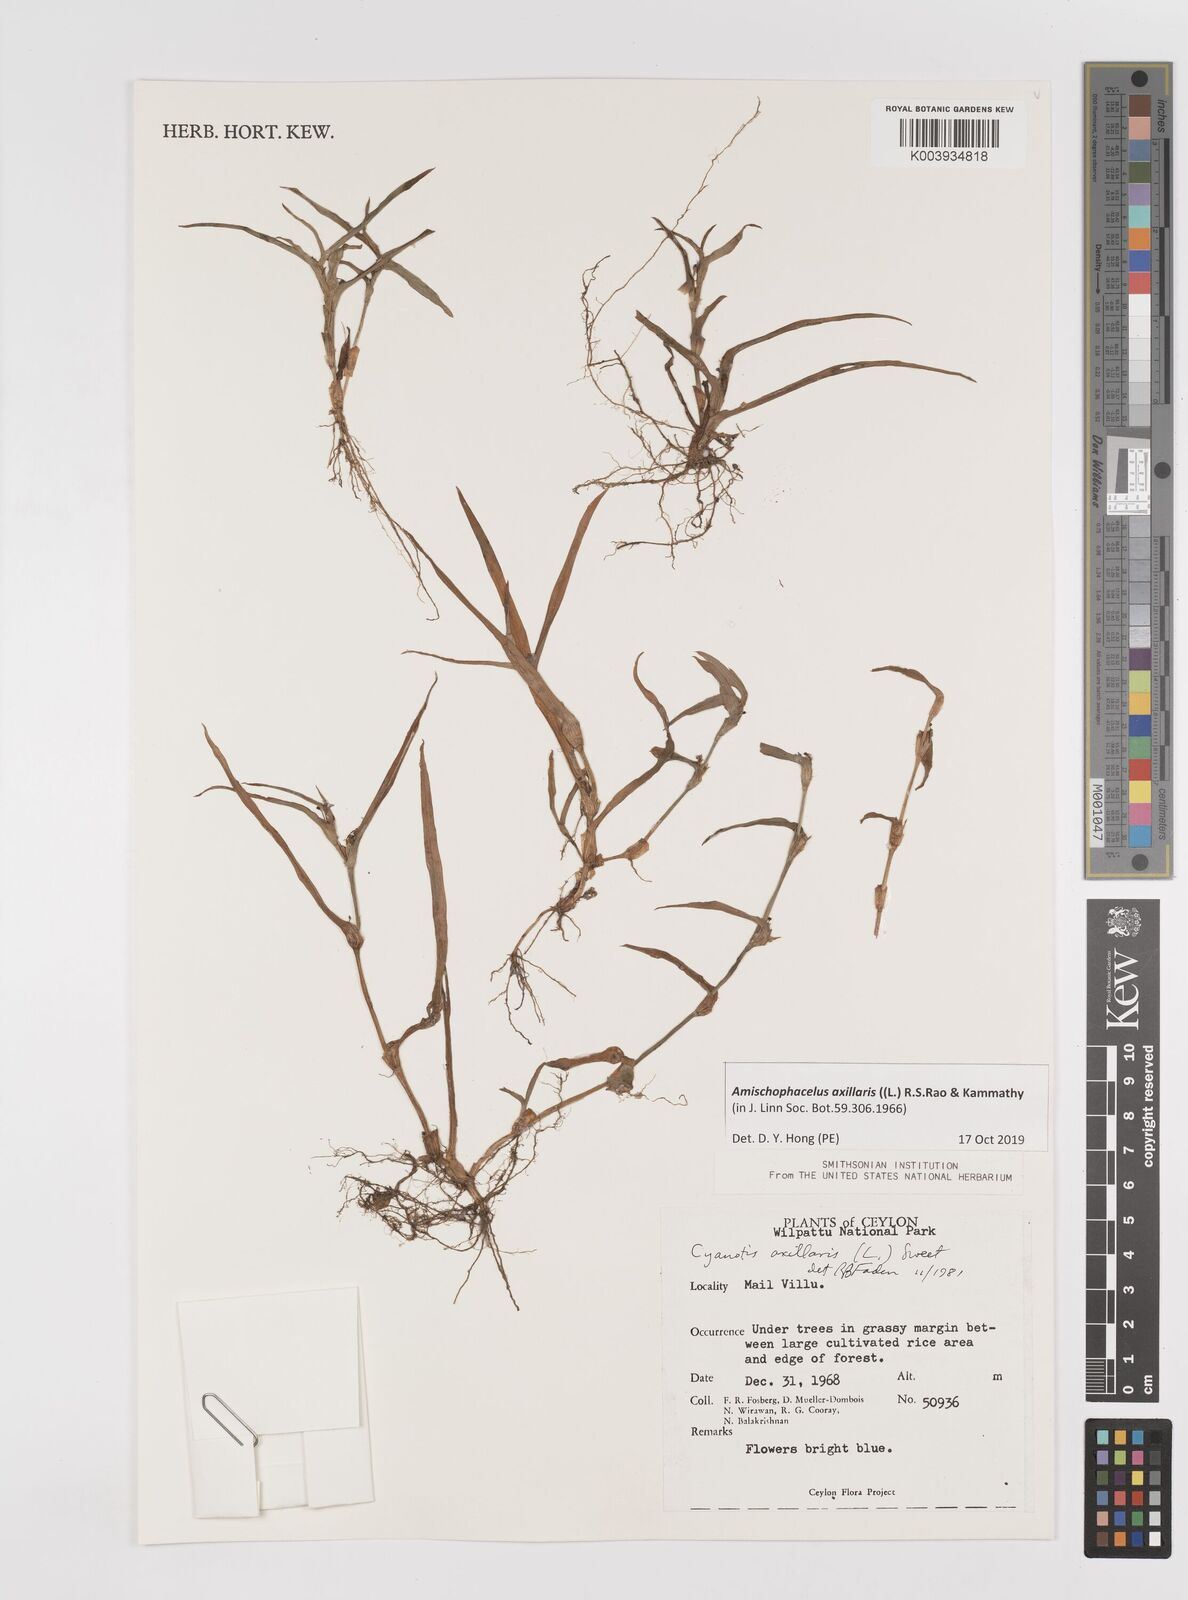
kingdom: Plantae
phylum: Tracheophyta
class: Liliopsida
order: Commelinales
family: Commelinaceae
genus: Cyanotis
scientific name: Cyanotis axillaris
